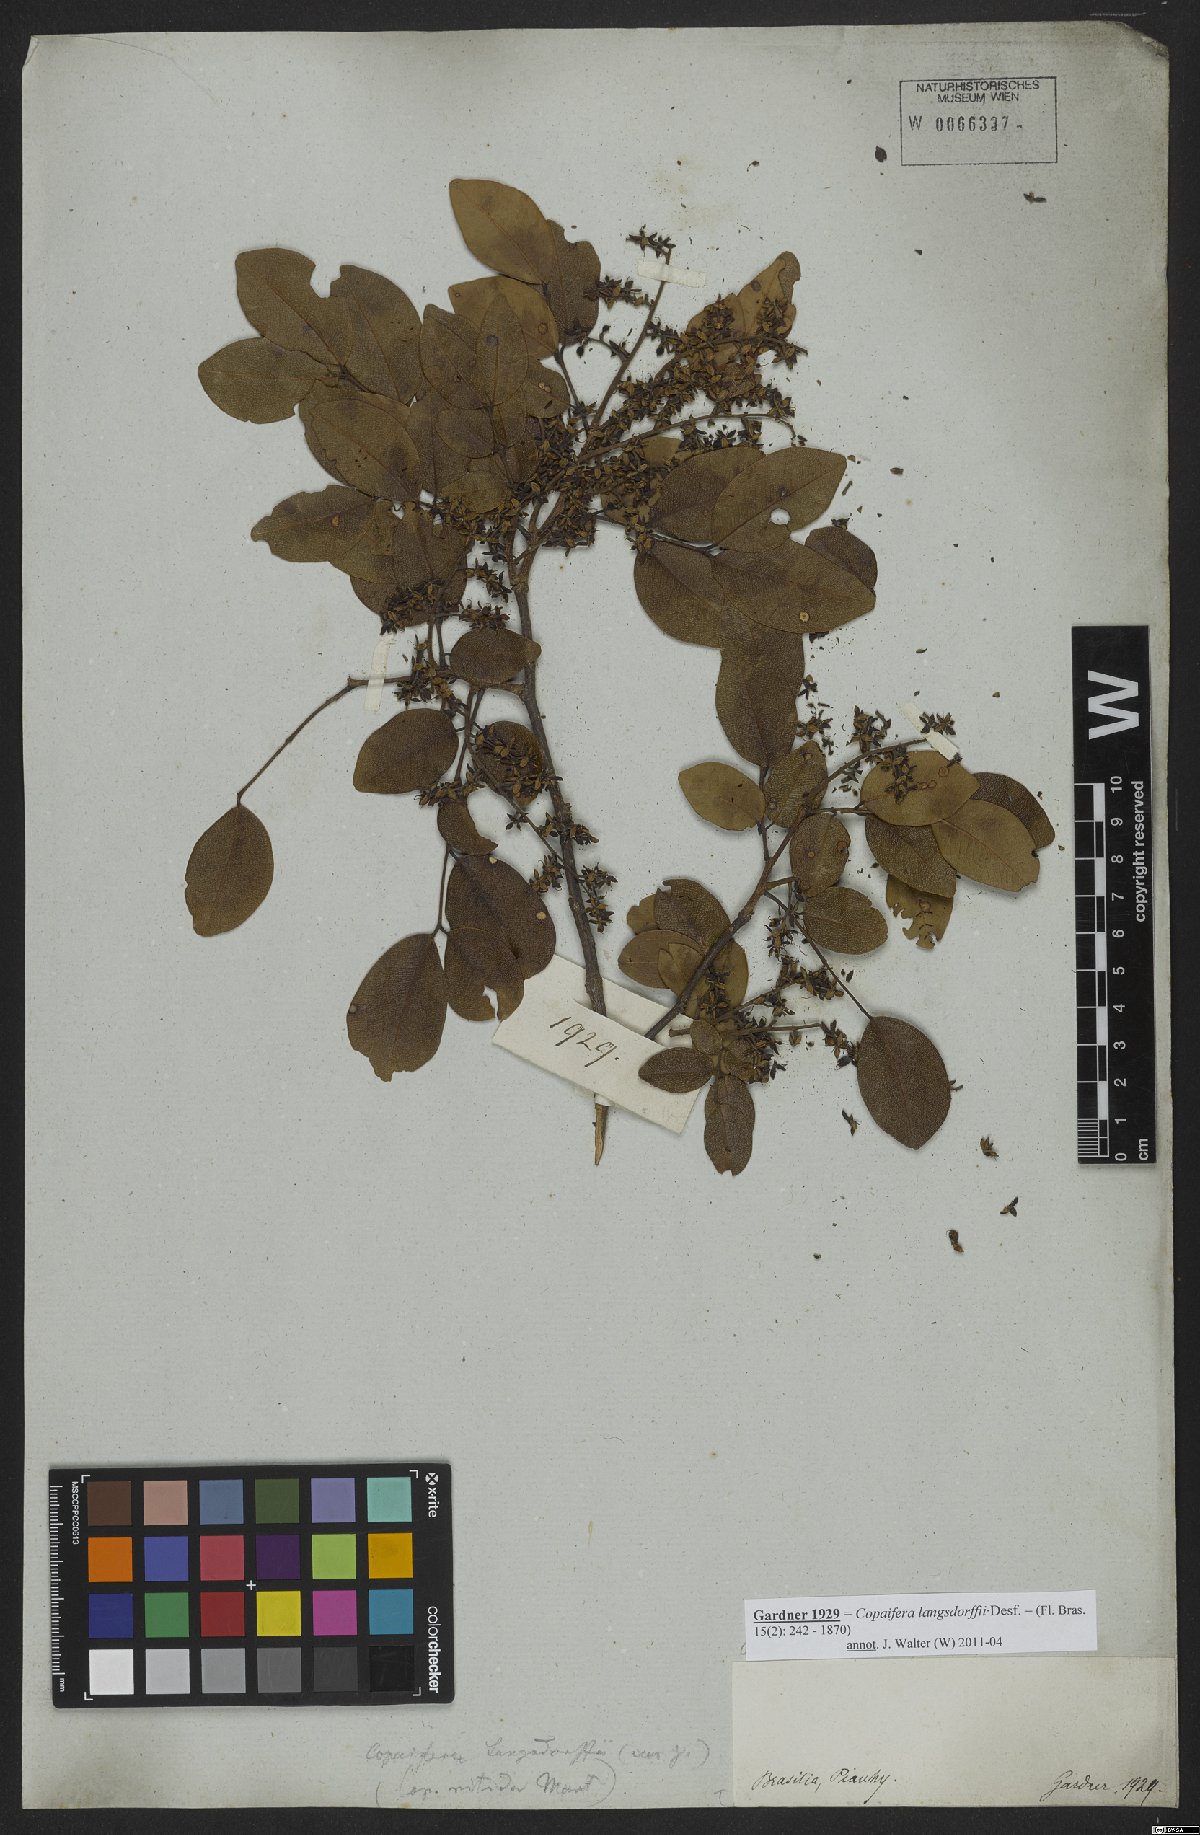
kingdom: Plantae
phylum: Tracheophyta
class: Magnoliopsida
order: Fabales
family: Fabaceae
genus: Copaifera
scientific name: Copaifera langsdorffii
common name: Brazilian diesel tree
